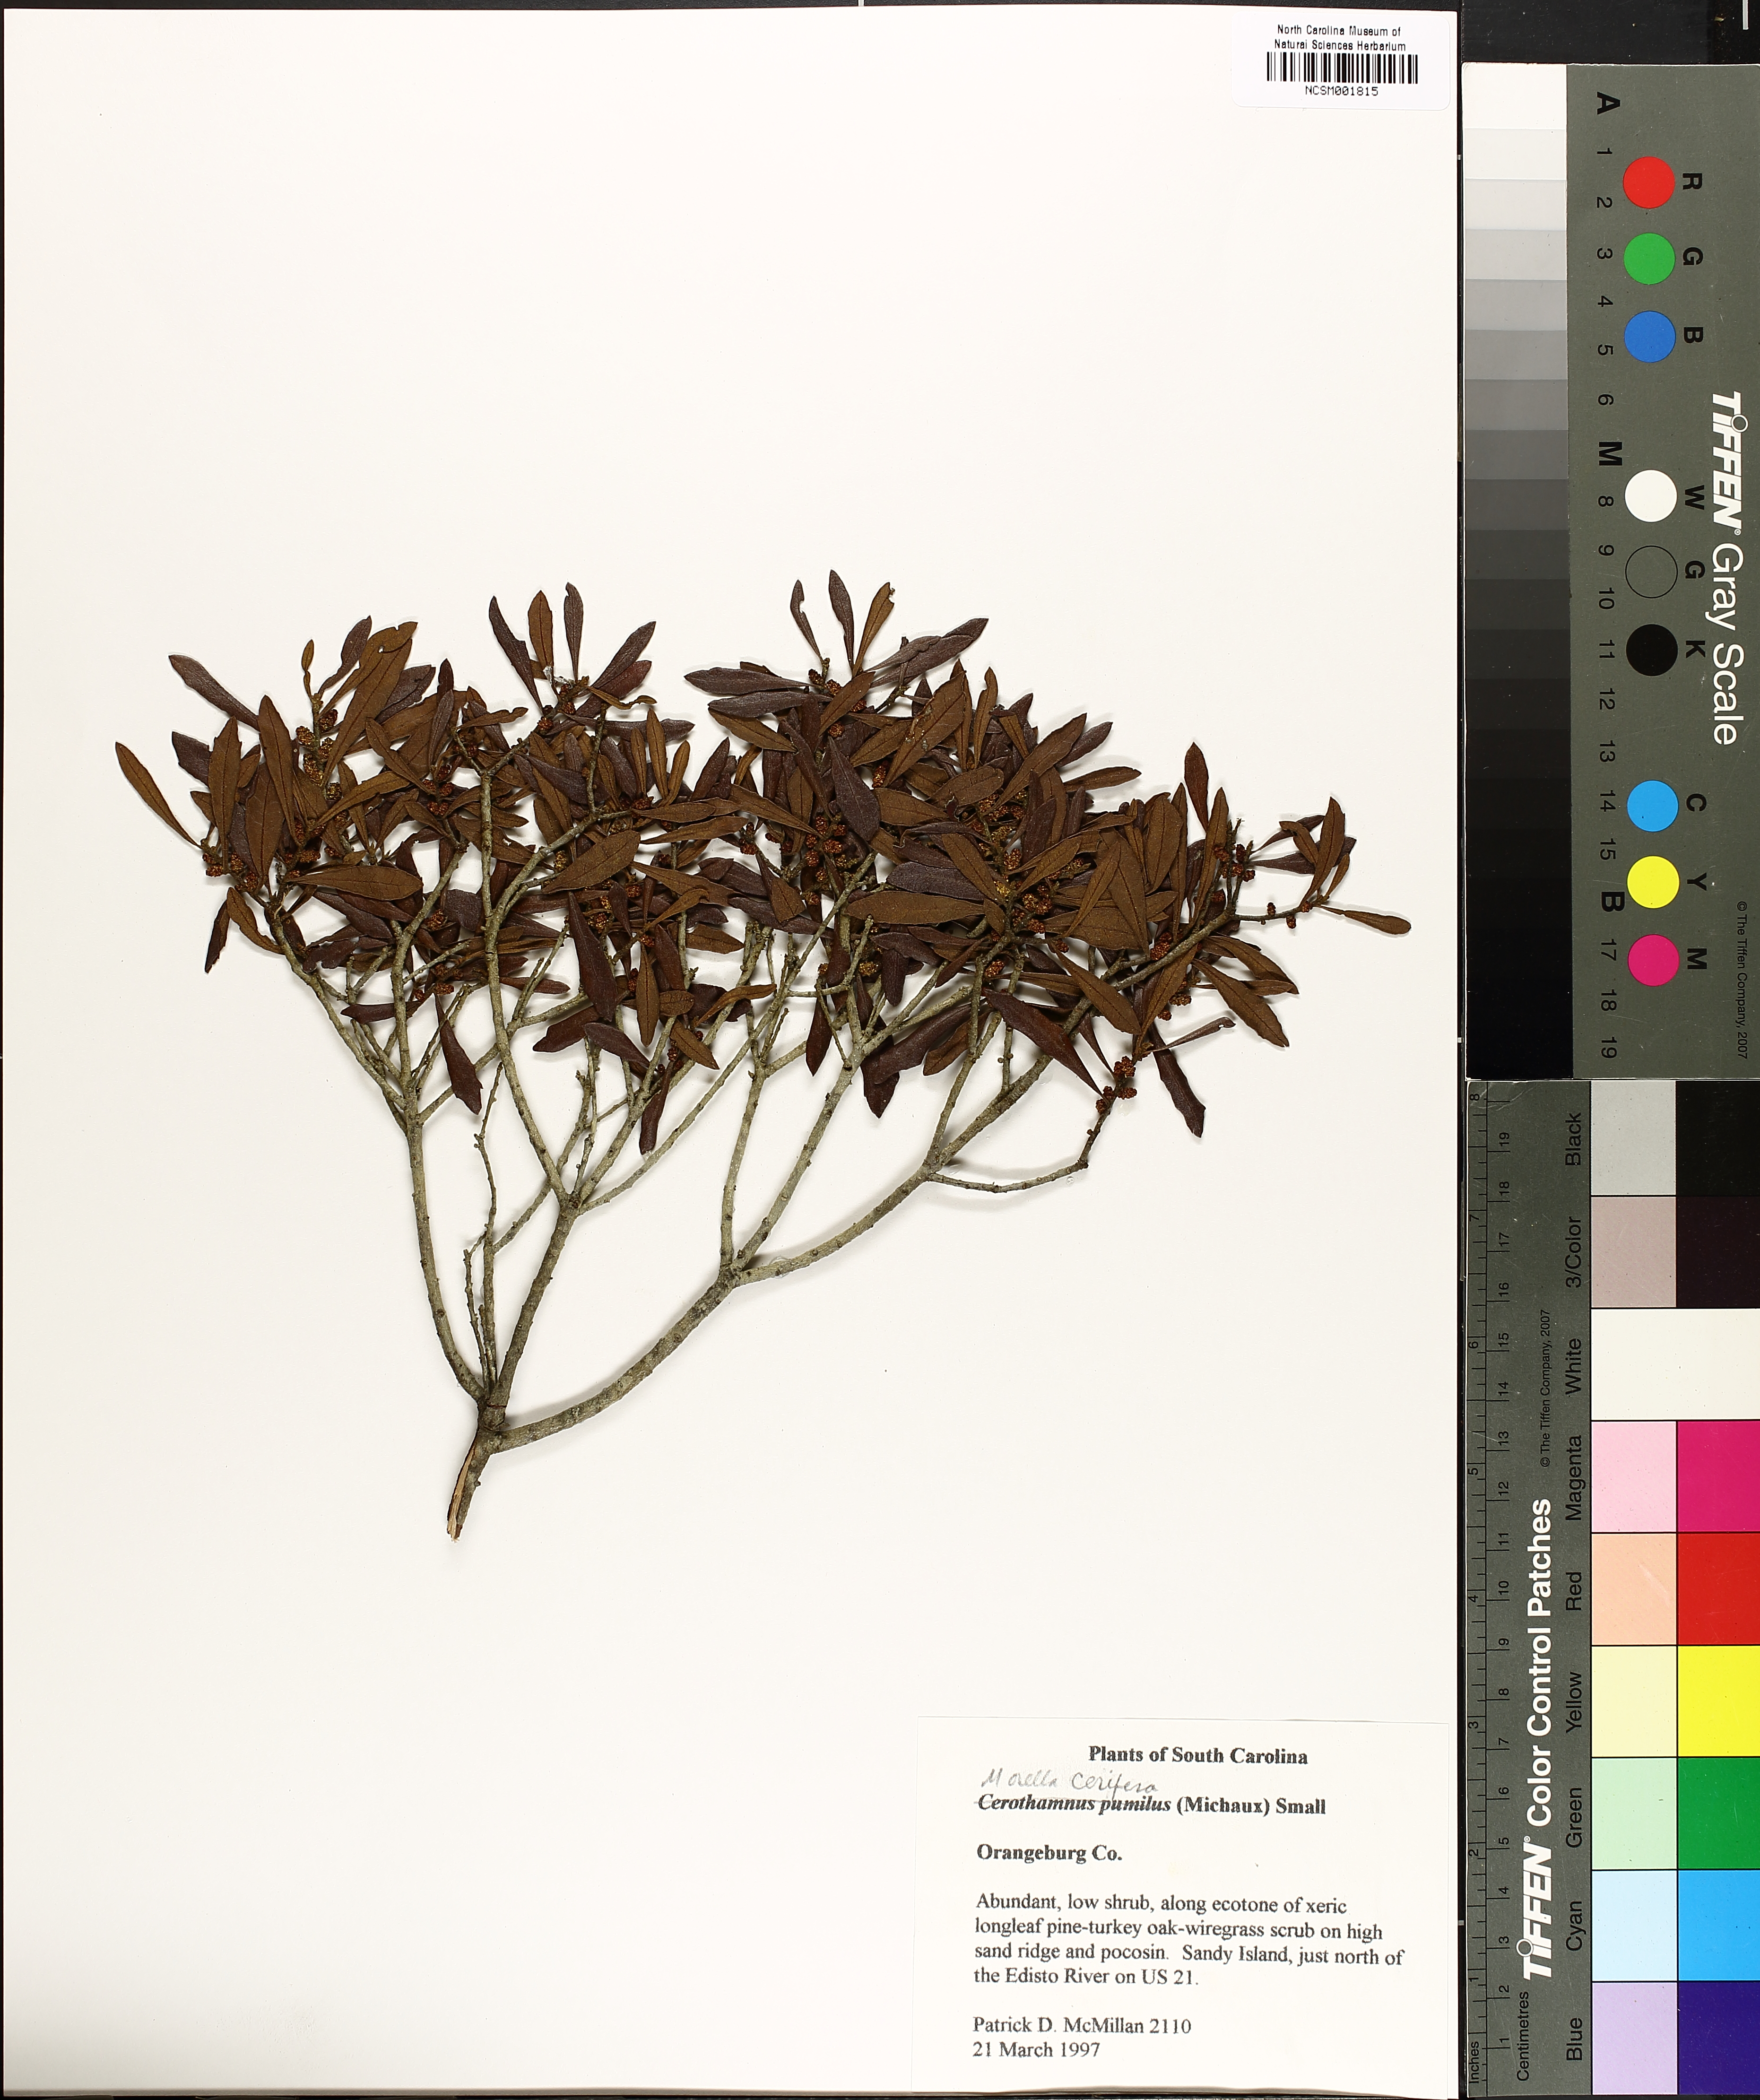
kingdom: Plantae
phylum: Tracheophyta
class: Magnoliopsida
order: Fagales
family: Myricaceae
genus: Morella
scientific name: Morella cerifera
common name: Wax myrtle
